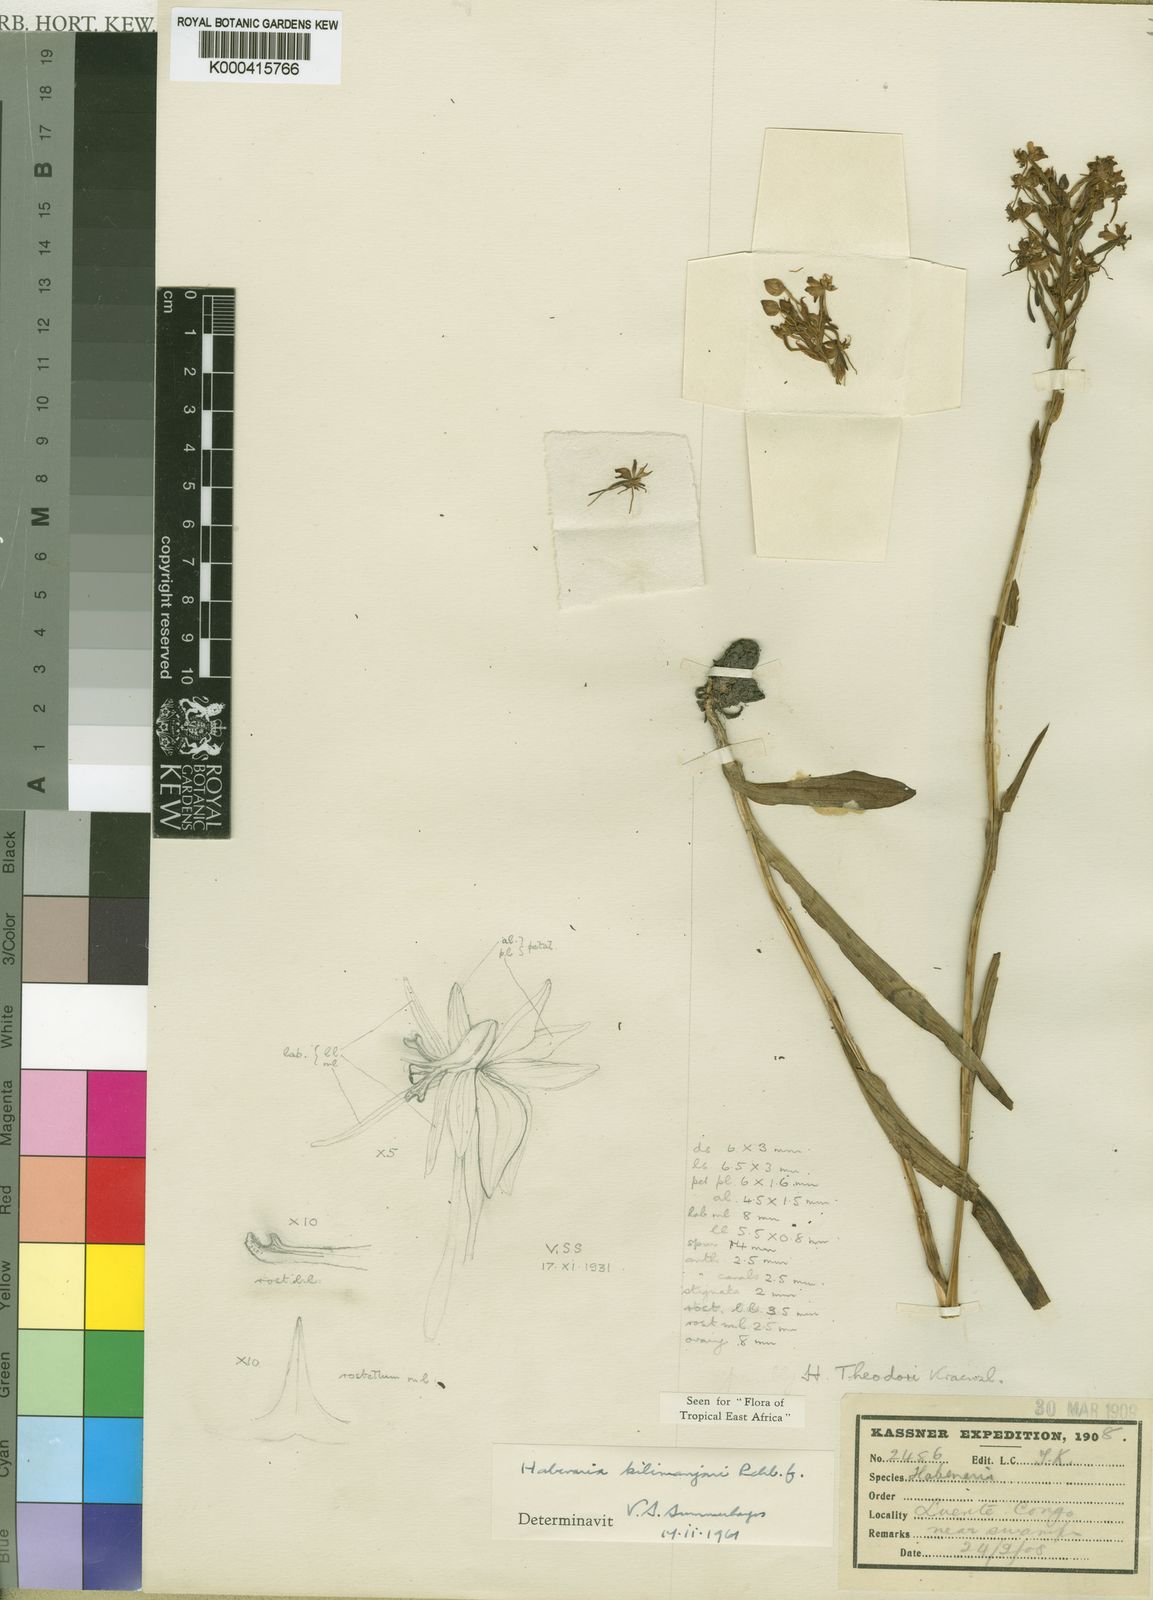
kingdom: Plantae
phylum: Tracheophyta
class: Liliopsida
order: Asparagales
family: Orchidaceae
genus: Habenaria
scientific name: Habenaria kilimanjari
